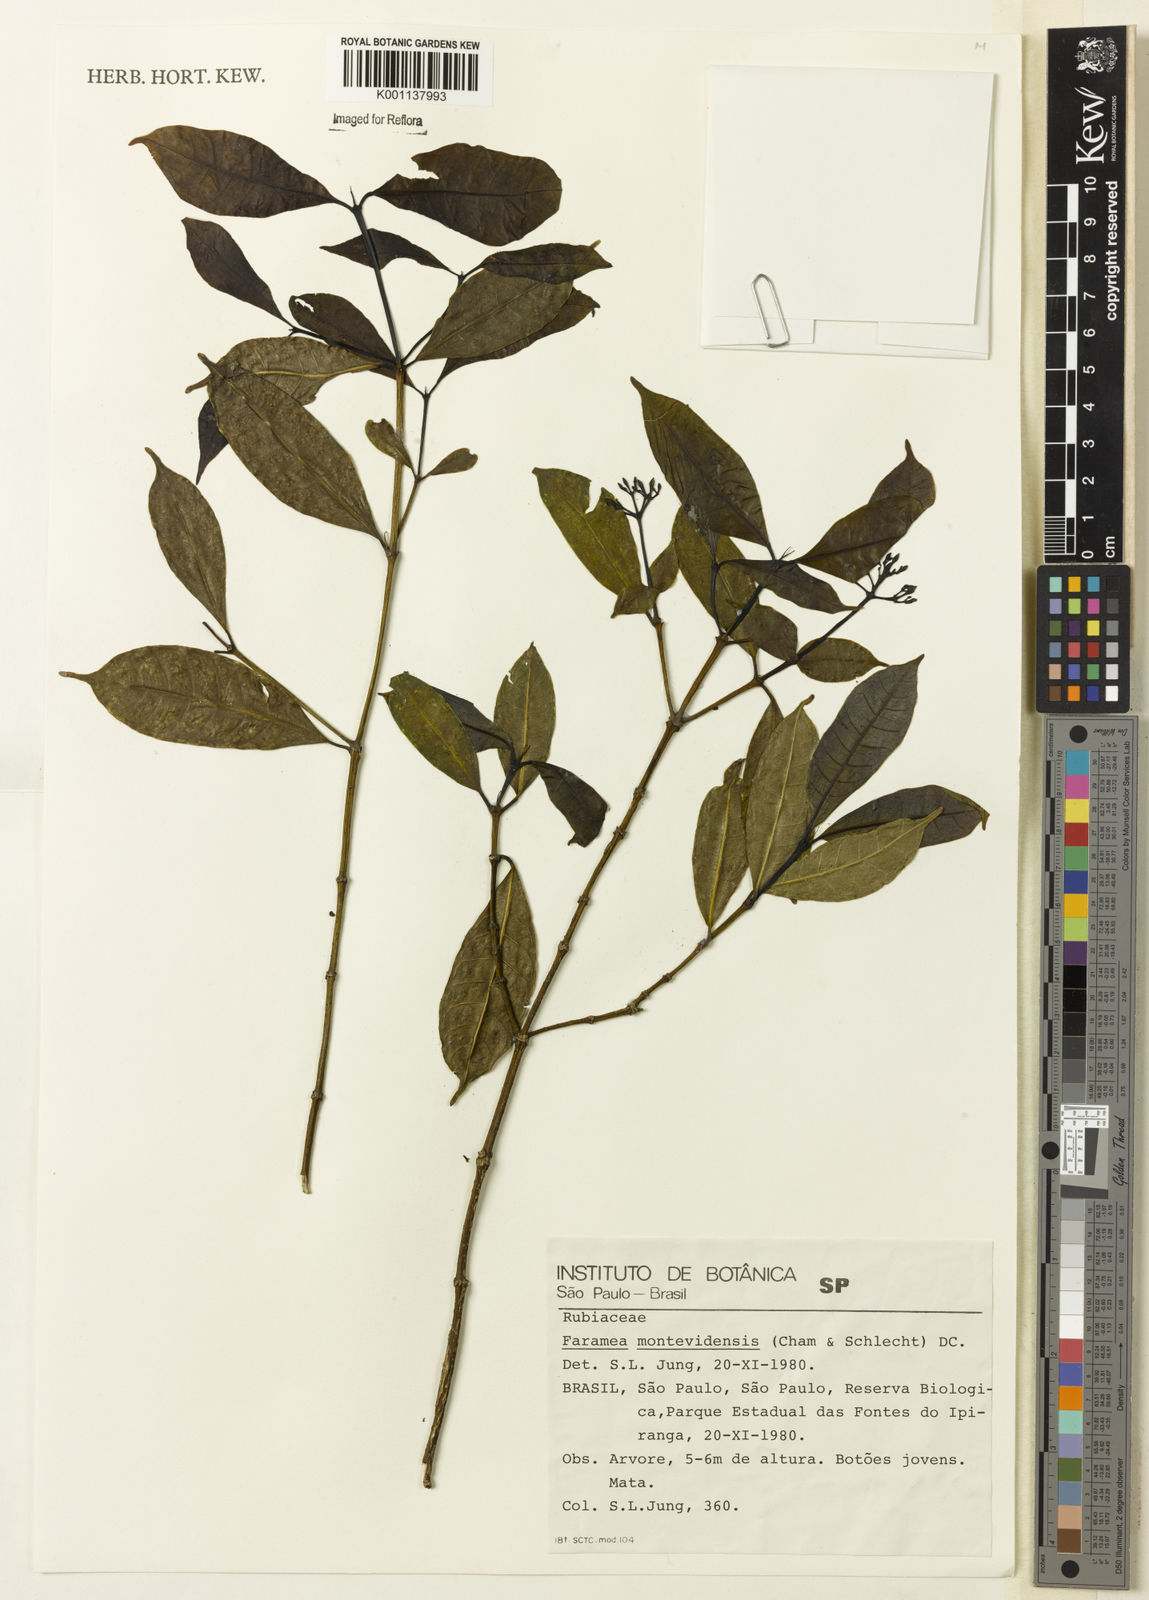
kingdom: Plantae
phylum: Tracheophyta
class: Magnoliopsida
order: Gentianales
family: Rubiaceae
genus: Faramea
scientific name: Faramea montevidensis
